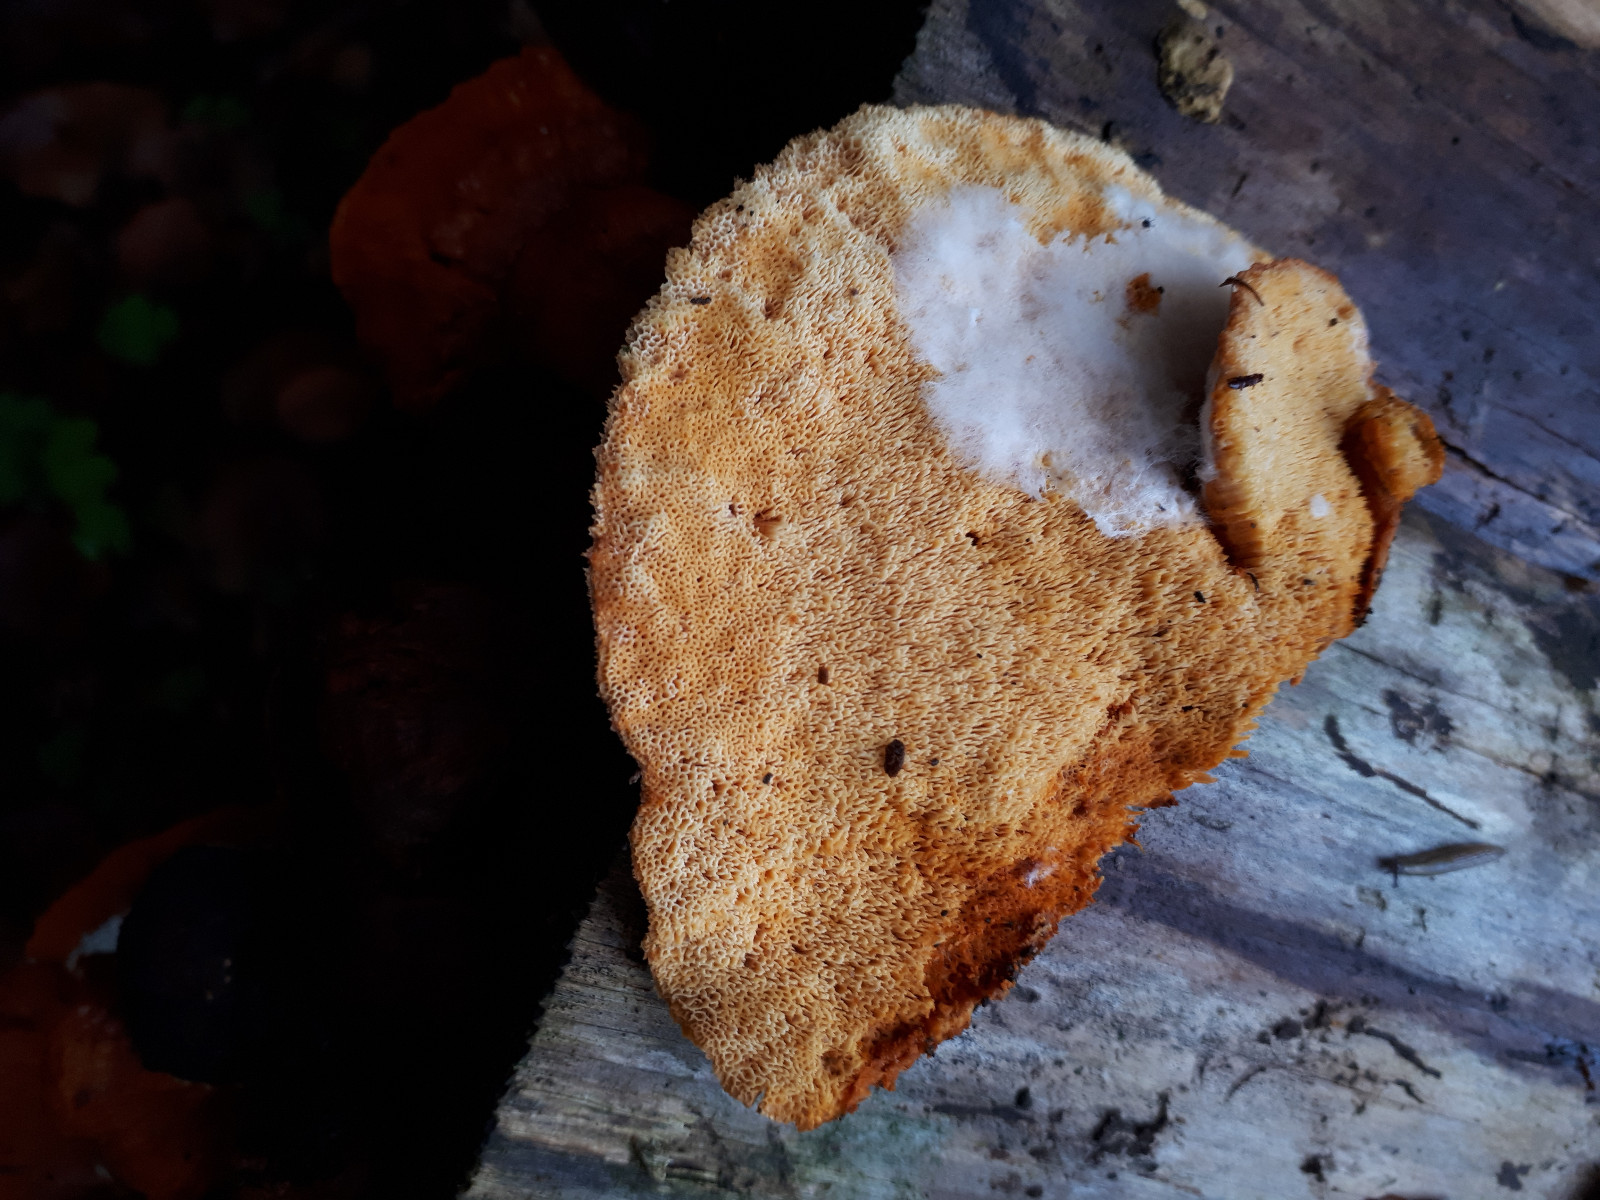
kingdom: Fungi
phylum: Basidiomycota
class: Agaricomycetes
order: Polyporales
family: Pycnoporellaceae
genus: Pycnoporellus
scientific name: Pycnoporellus fulgens
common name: flammeporesvamp
